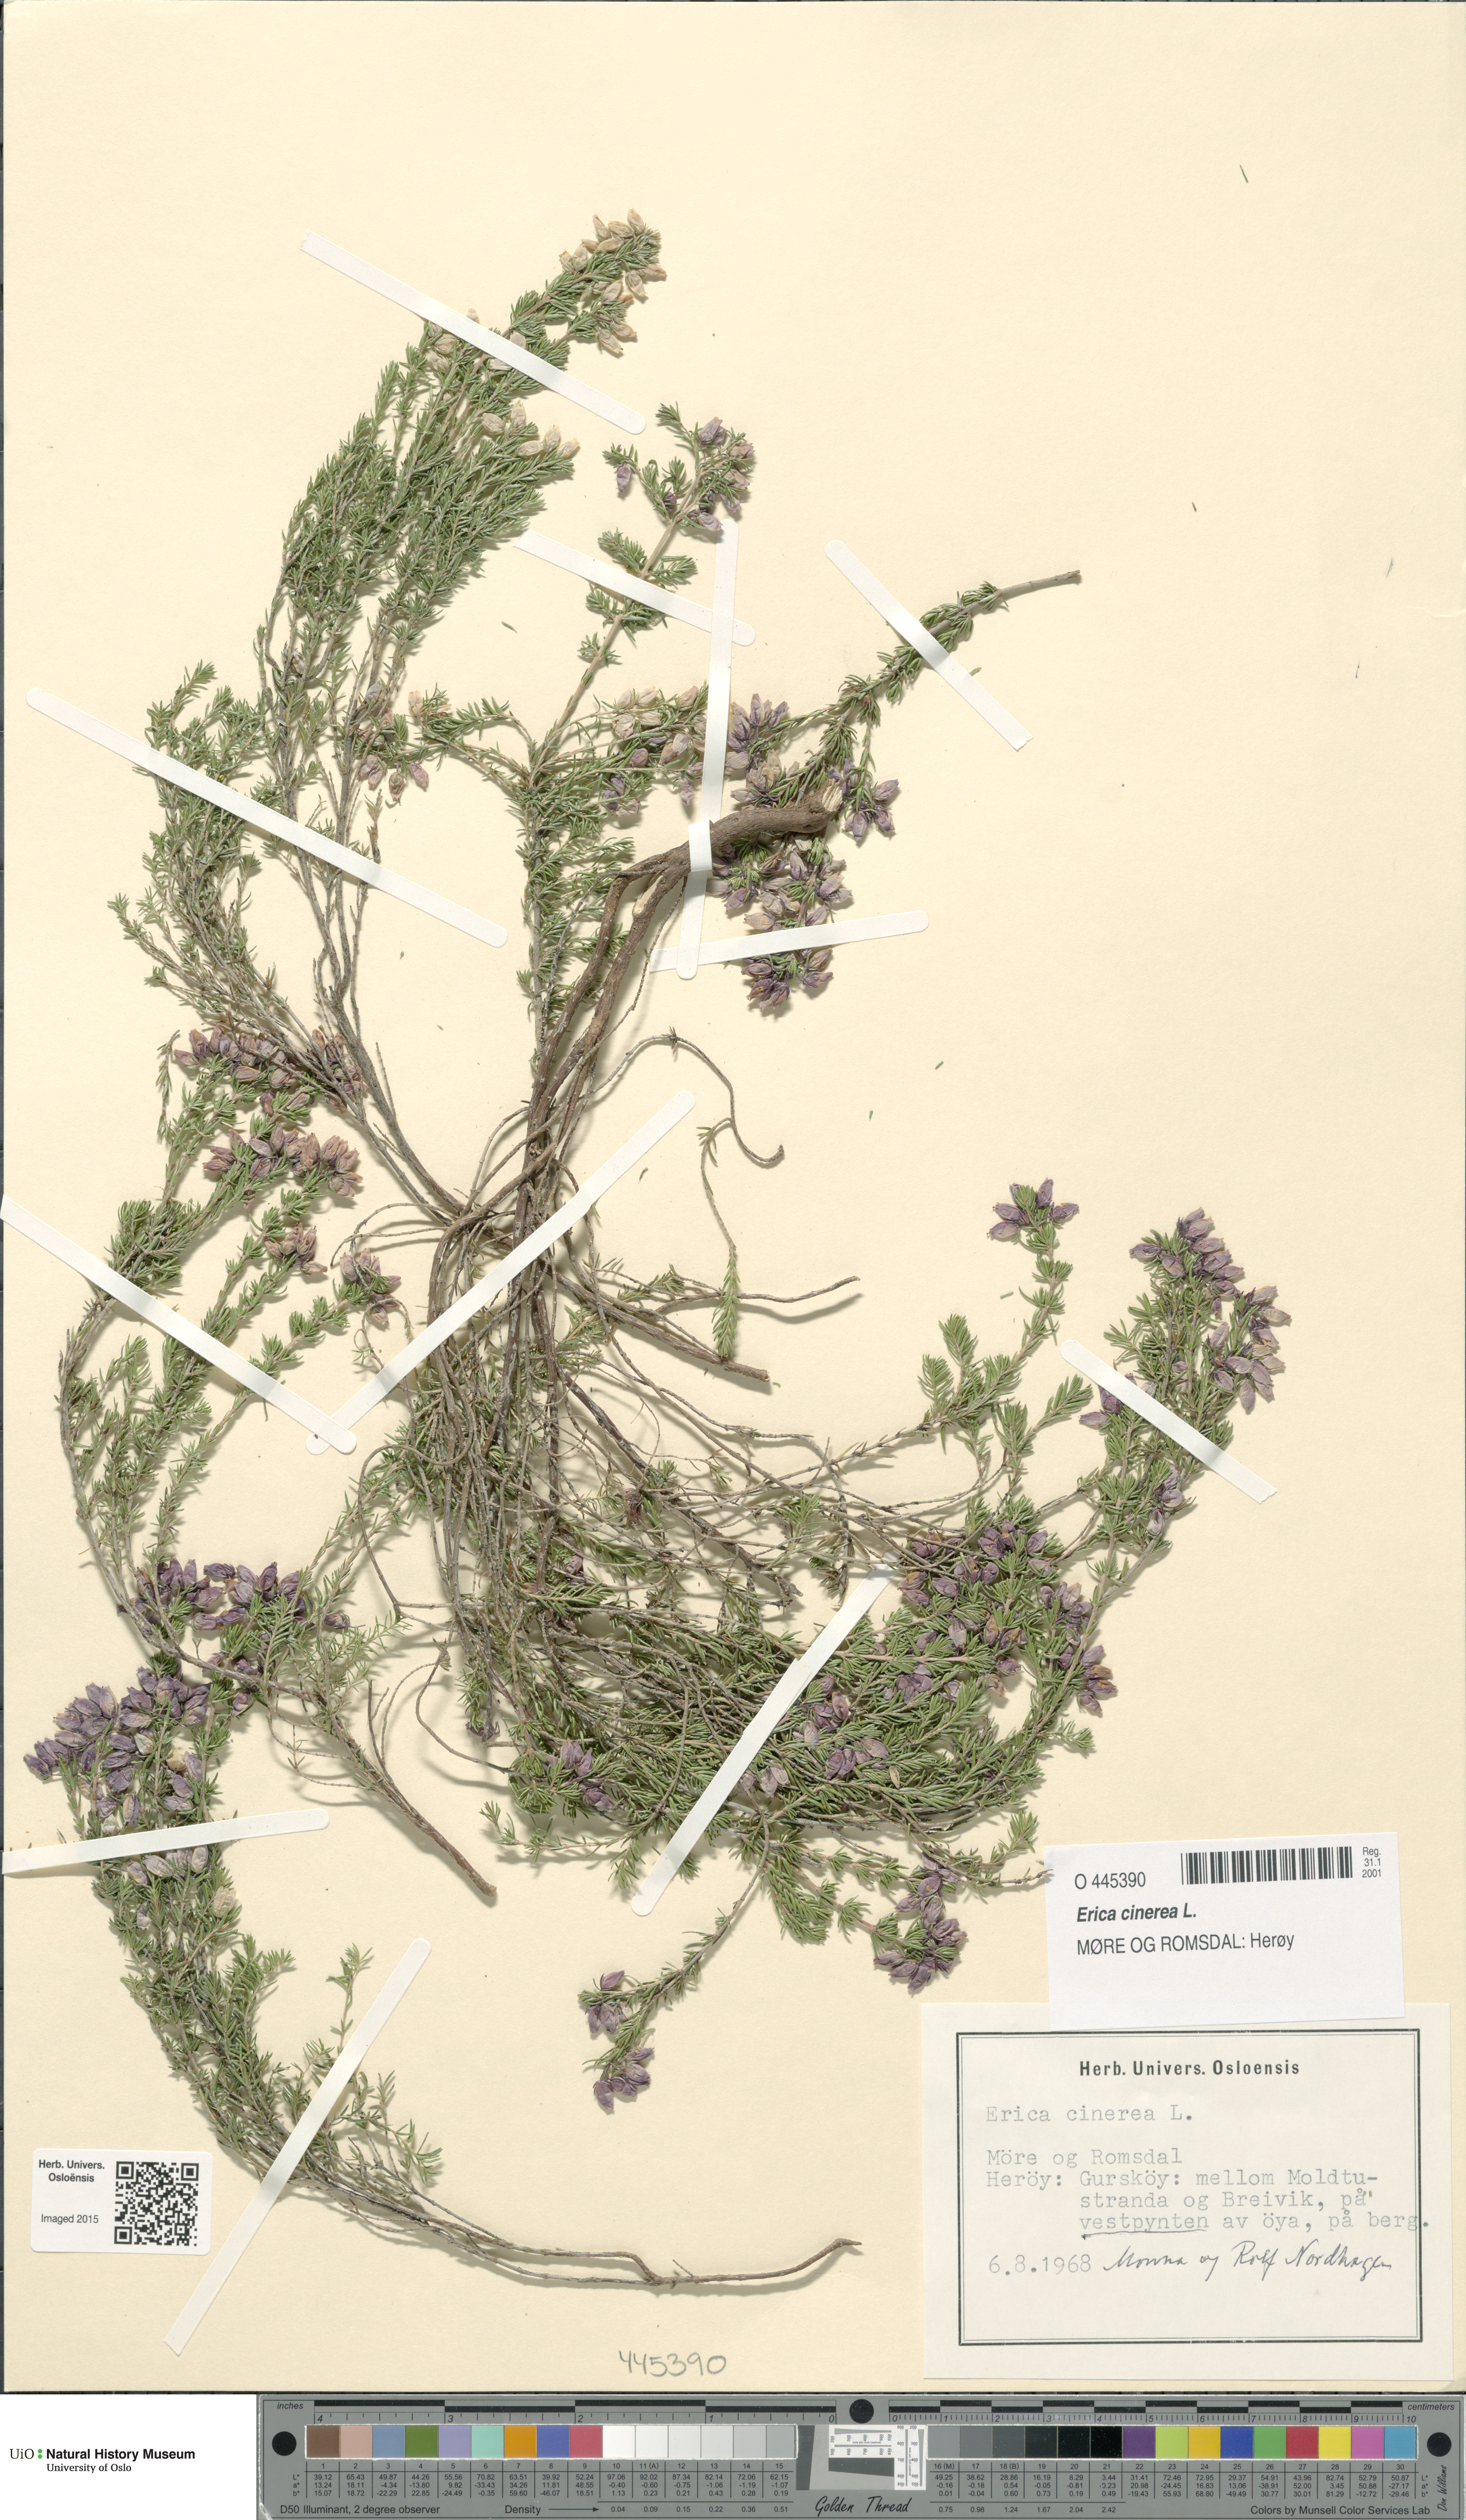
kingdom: Plantae
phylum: Tracheophyta
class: Magnoliopsida
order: Ericales
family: Ericaceae
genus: Erica
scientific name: Erica cinerea
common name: Bell heather
